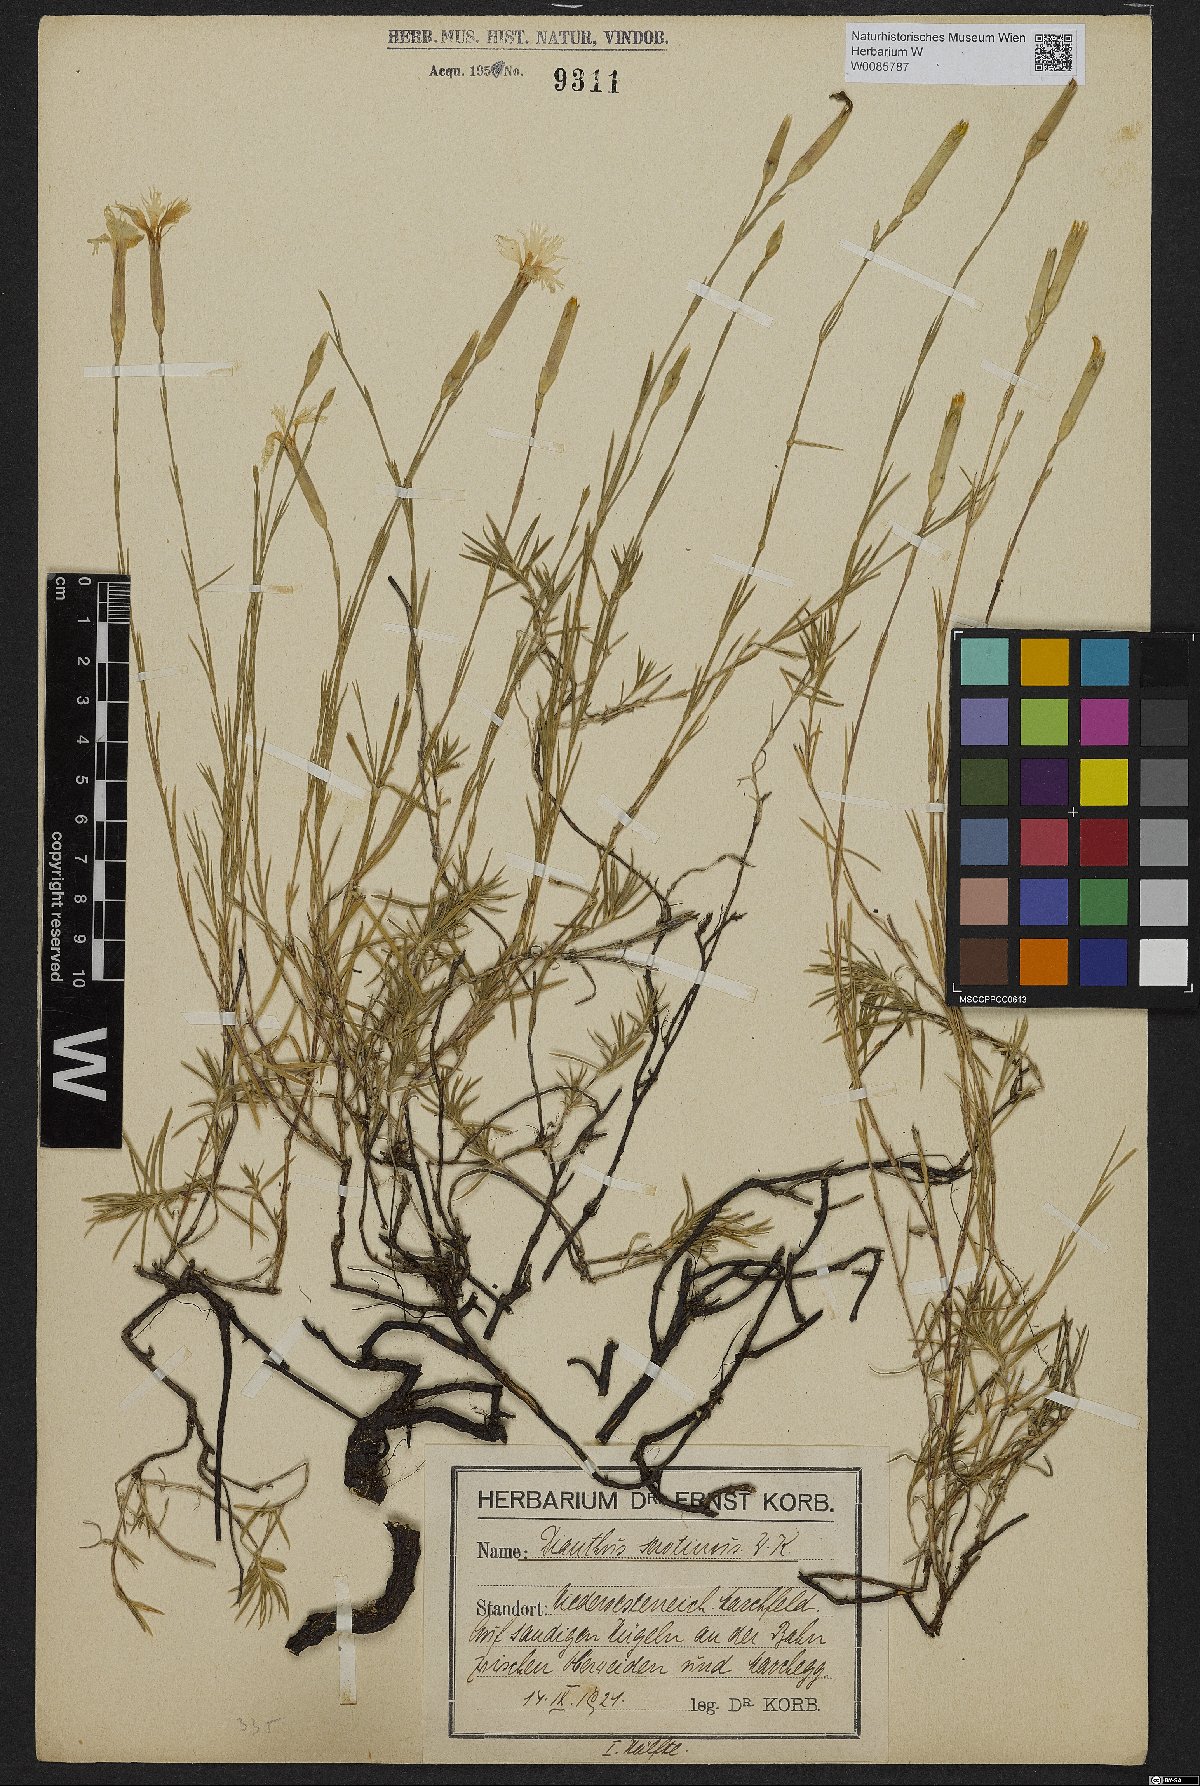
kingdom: Plantae
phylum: Tracheophyta
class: Magnoliopsida
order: Caryophyllales
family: Caryophyllaceae
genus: Dianthus
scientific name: Dianthus serotinus
